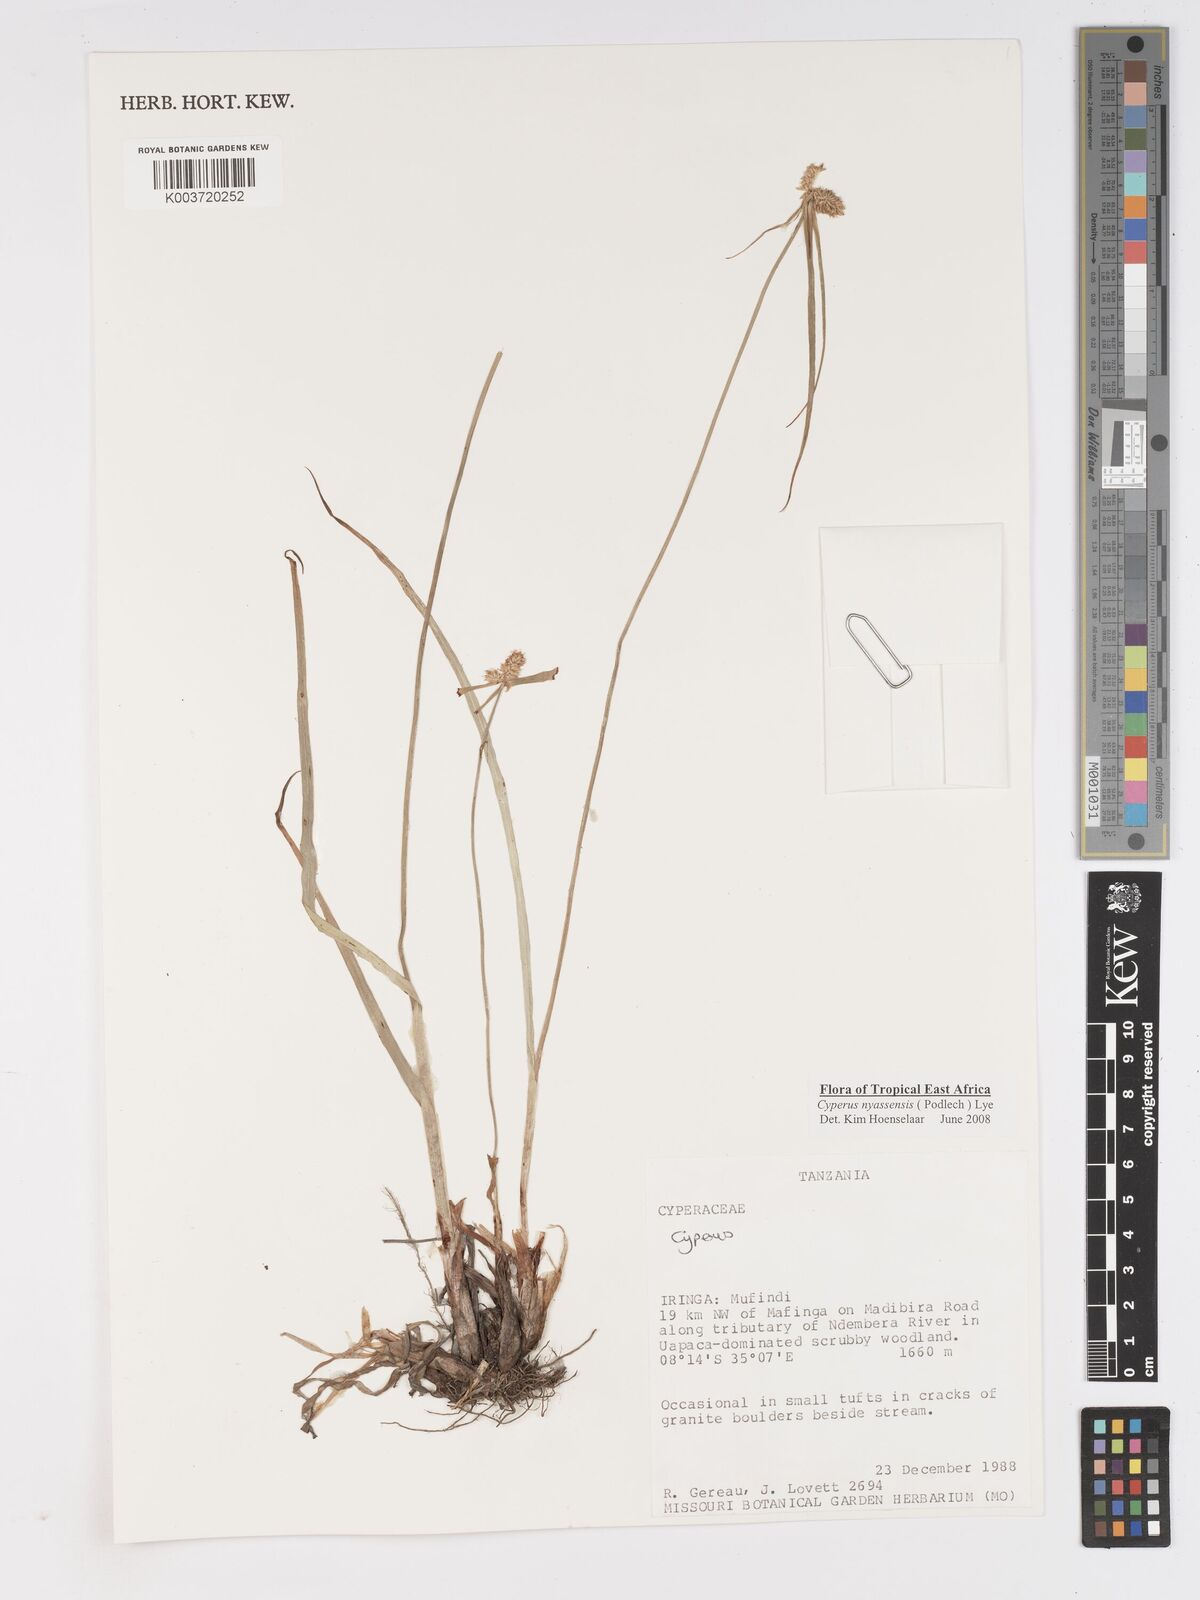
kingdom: Plantae
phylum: Tracheophyta
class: Liliopsida
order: Poales
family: Cyperaceae
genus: Cyperus
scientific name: Cyperus nyasensis
